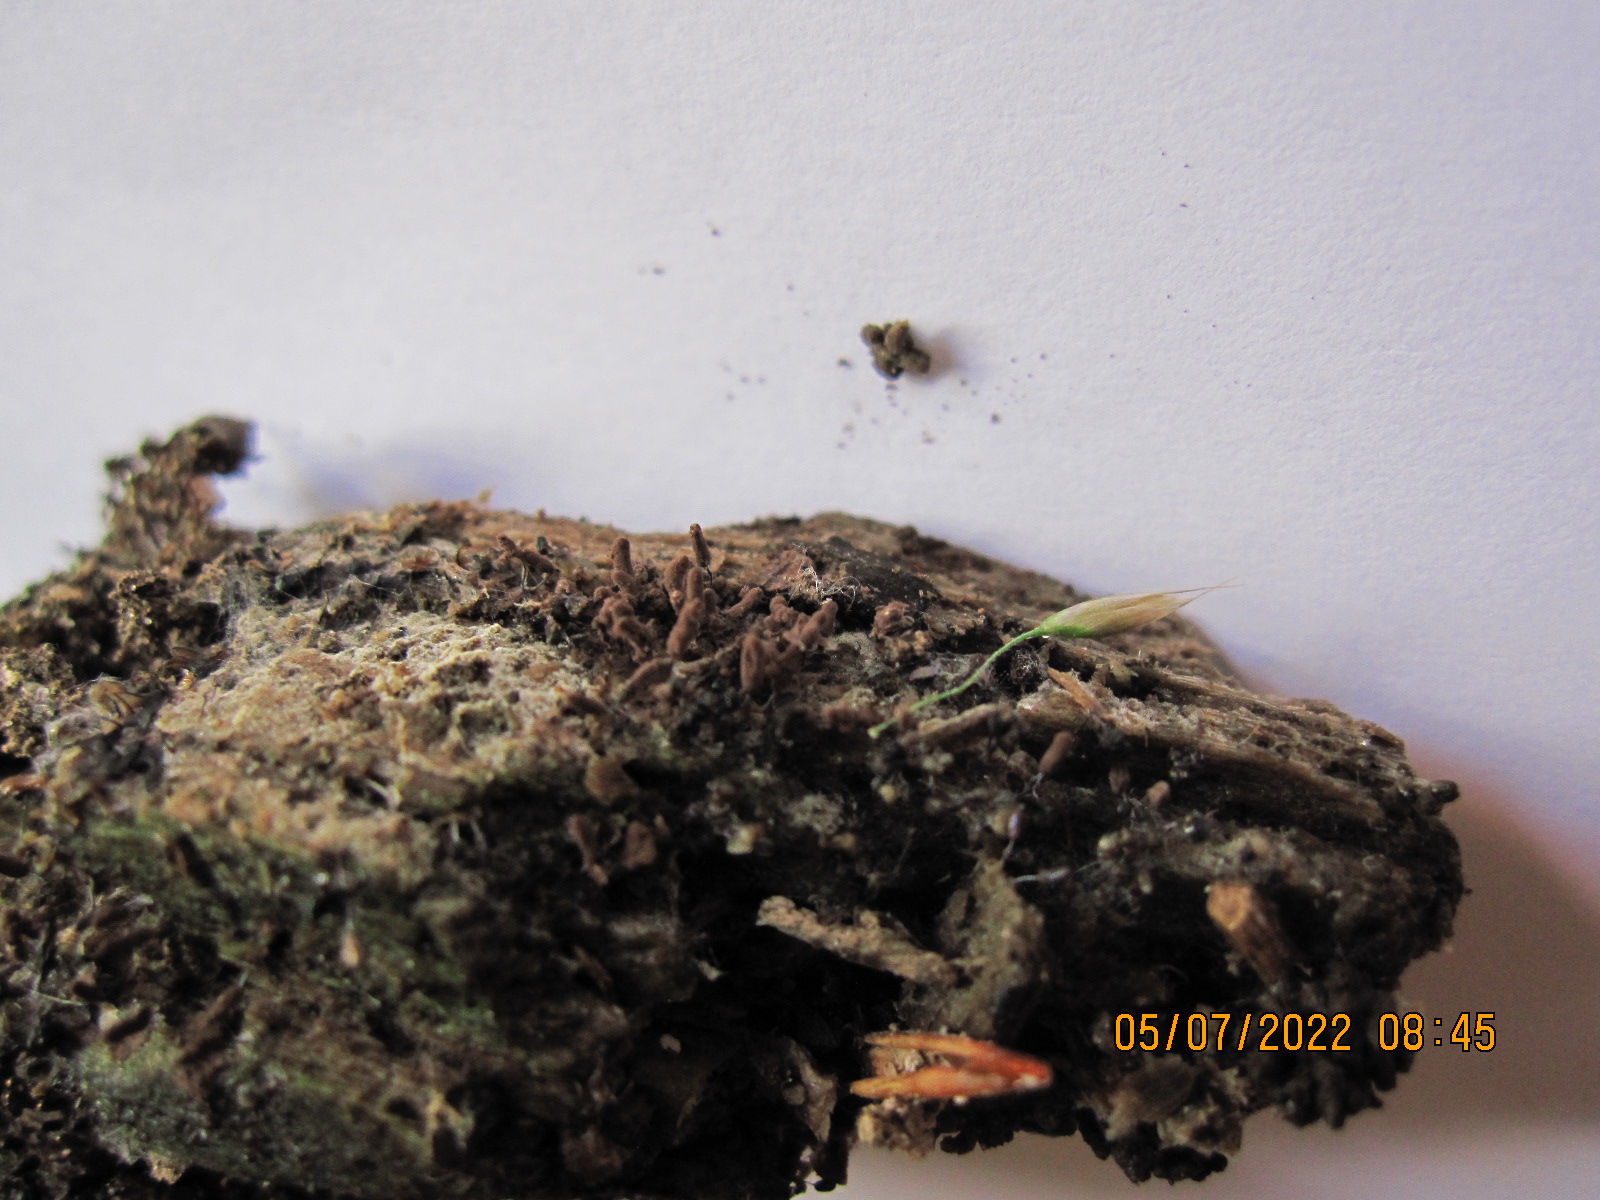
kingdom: Protozoa
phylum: Mycetozoa
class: Myxomycetes
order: Stemonitidales
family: Stemonitidaceae
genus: Stemonitopsis
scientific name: Stemonitopsis typhina
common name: skinnende støvkølle
